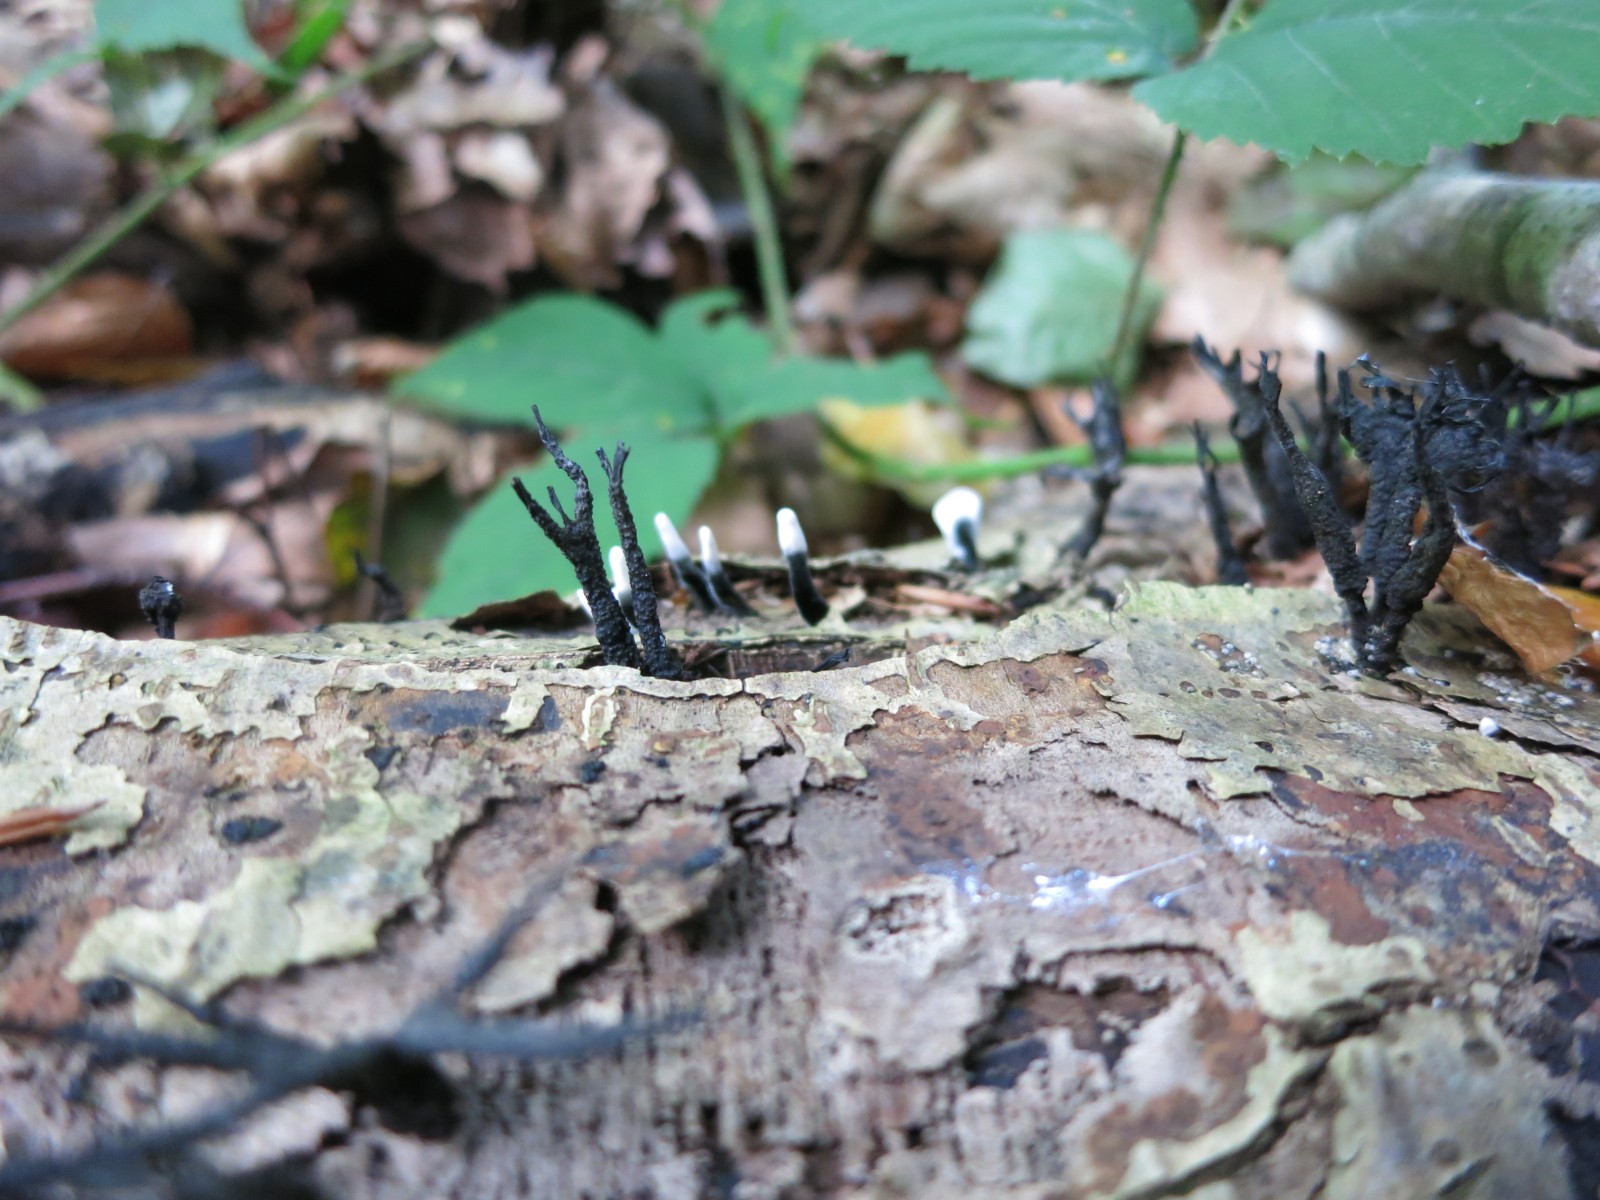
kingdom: Fungi
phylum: Ascomycota
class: Sordariomycetes
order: Xylariales
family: Xylariaceae
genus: Xylaria
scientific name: Xylaria hypoxylon
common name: grenet stødsvamp
